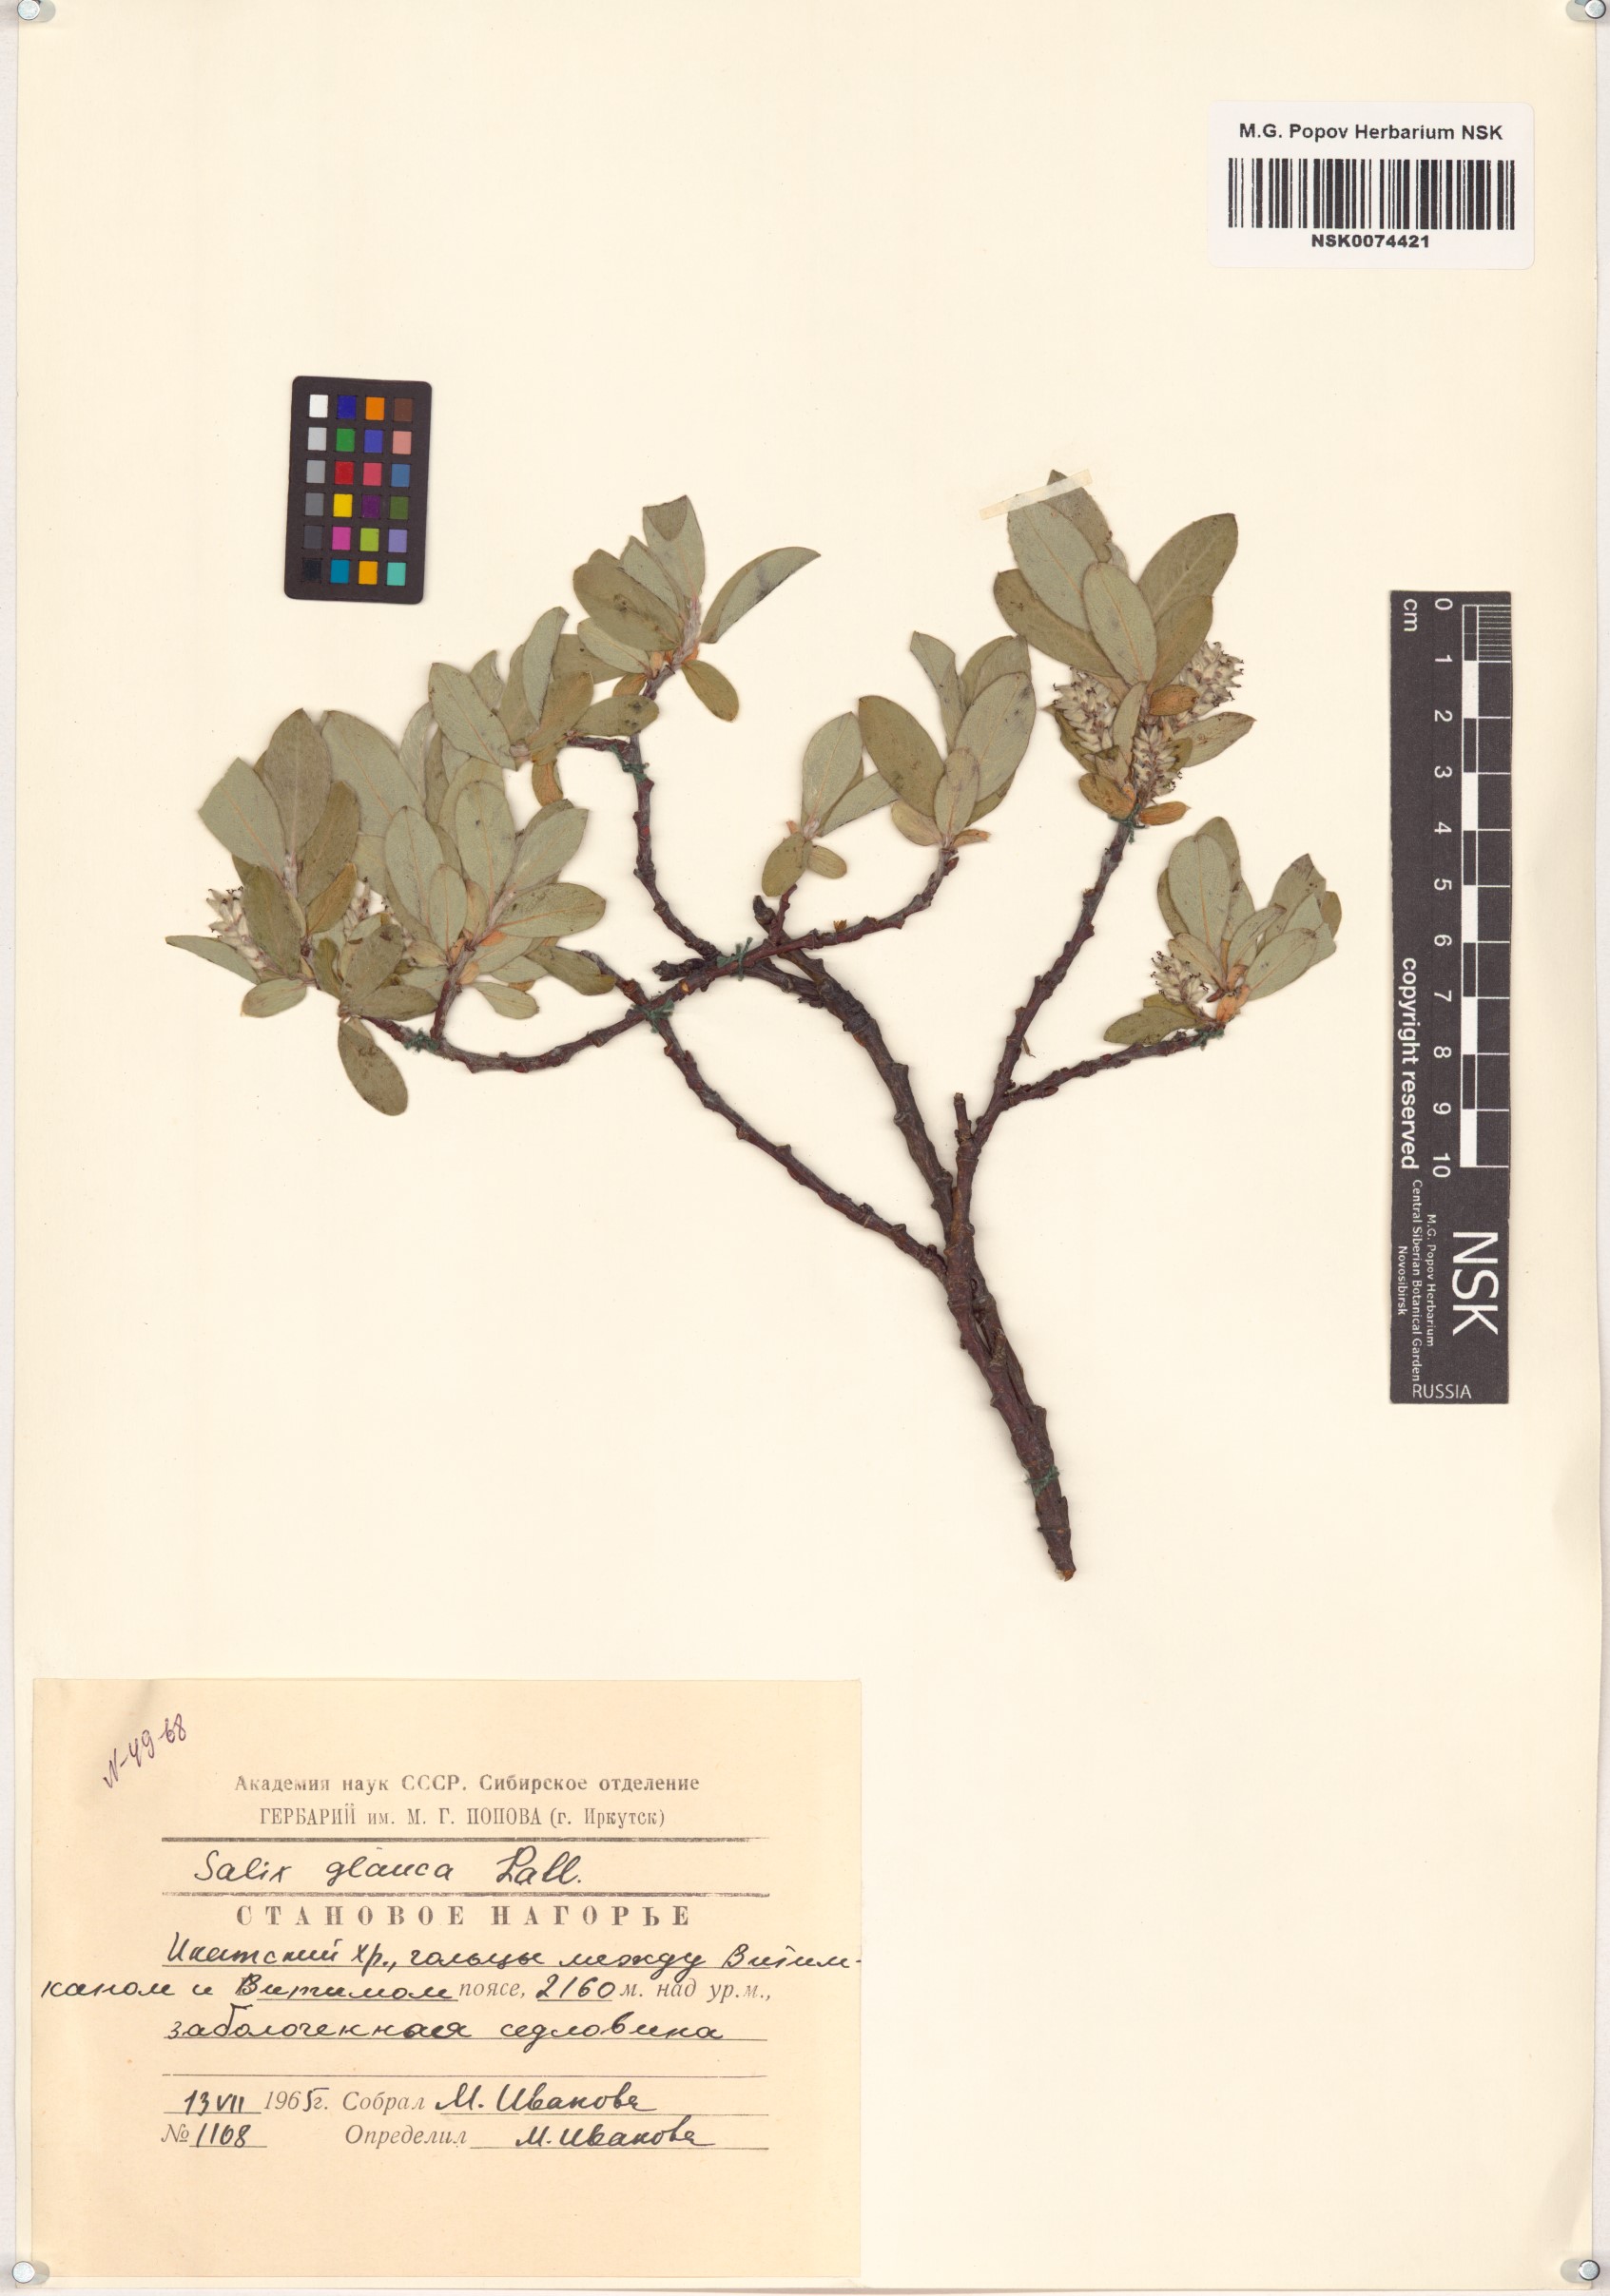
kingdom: Plantae
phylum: Tracheophyta
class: Magnoliopsida
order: Malpighiales
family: Salicaceae
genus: Salix
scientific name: Salix glauca
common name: Glaucous willow
